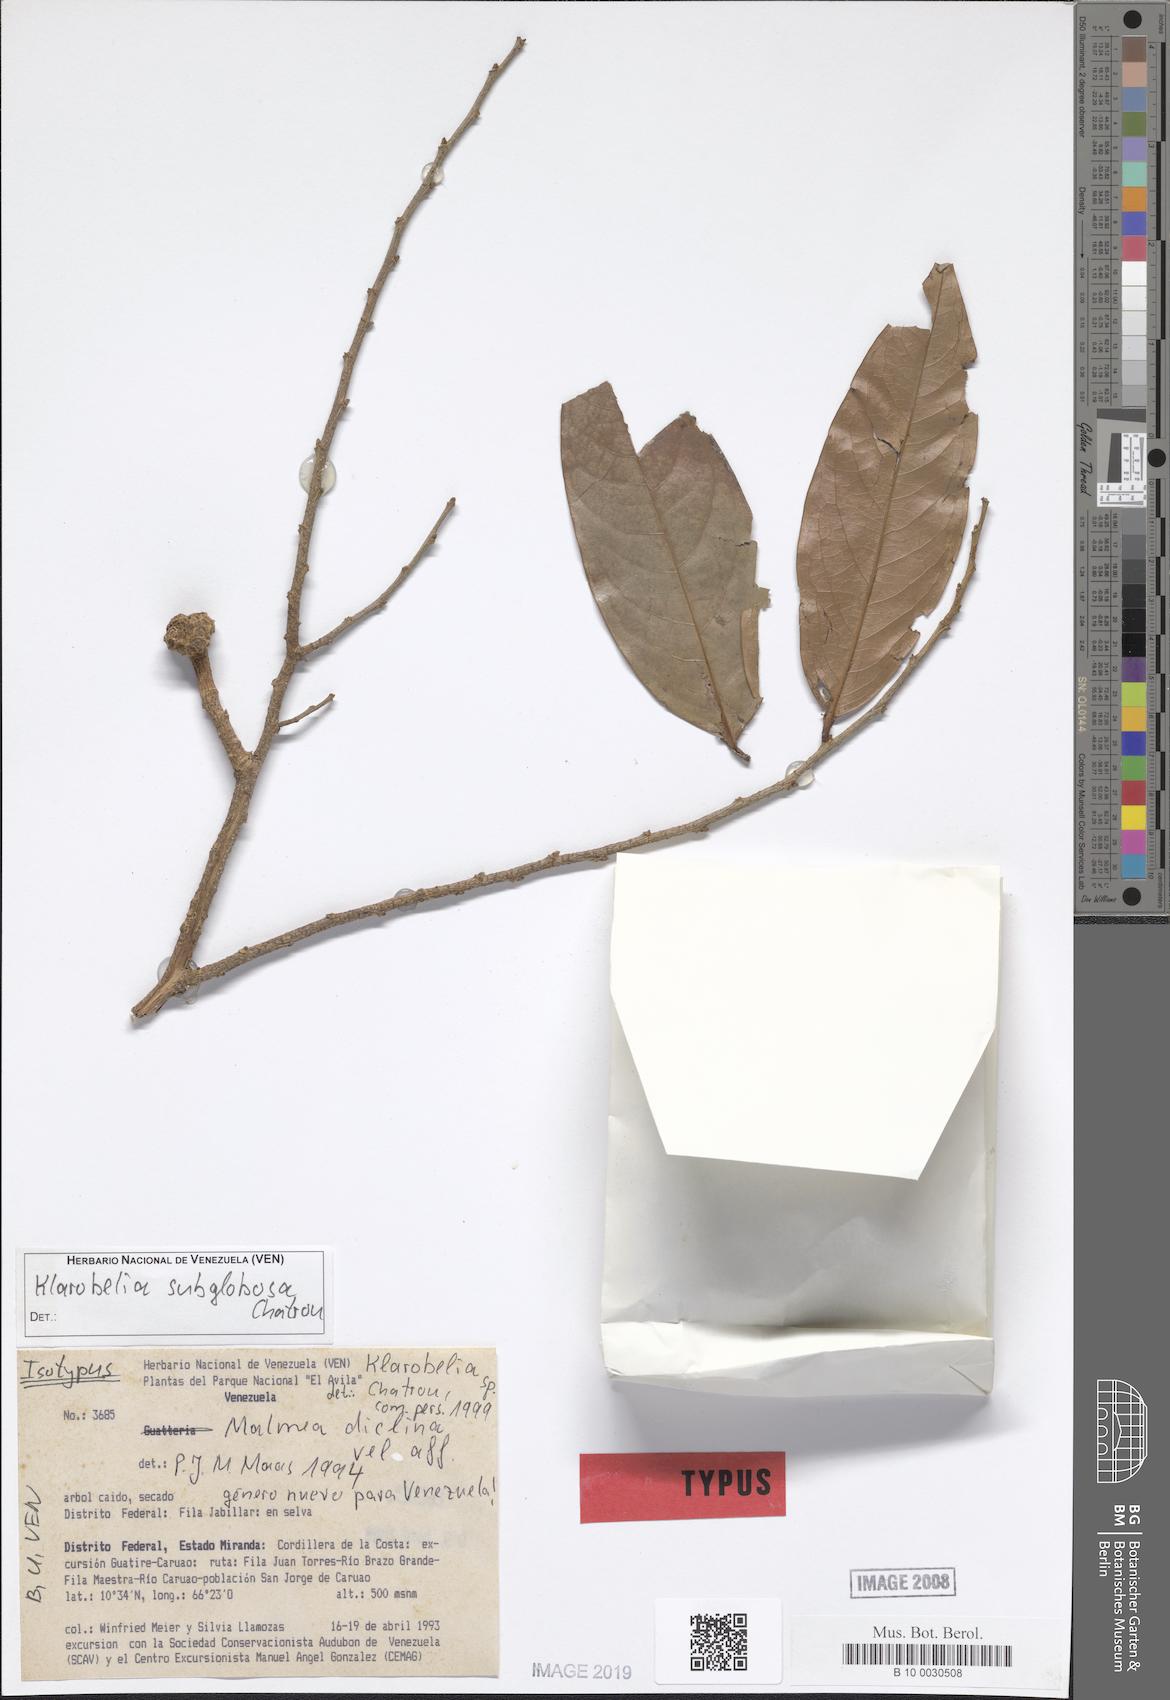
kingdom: Plantae
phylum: Tracheophyta
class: Magnoliopsida
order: Magnoliales
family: Annonaceae
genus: Klarobelia
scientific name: Klarobelia subglobosa
